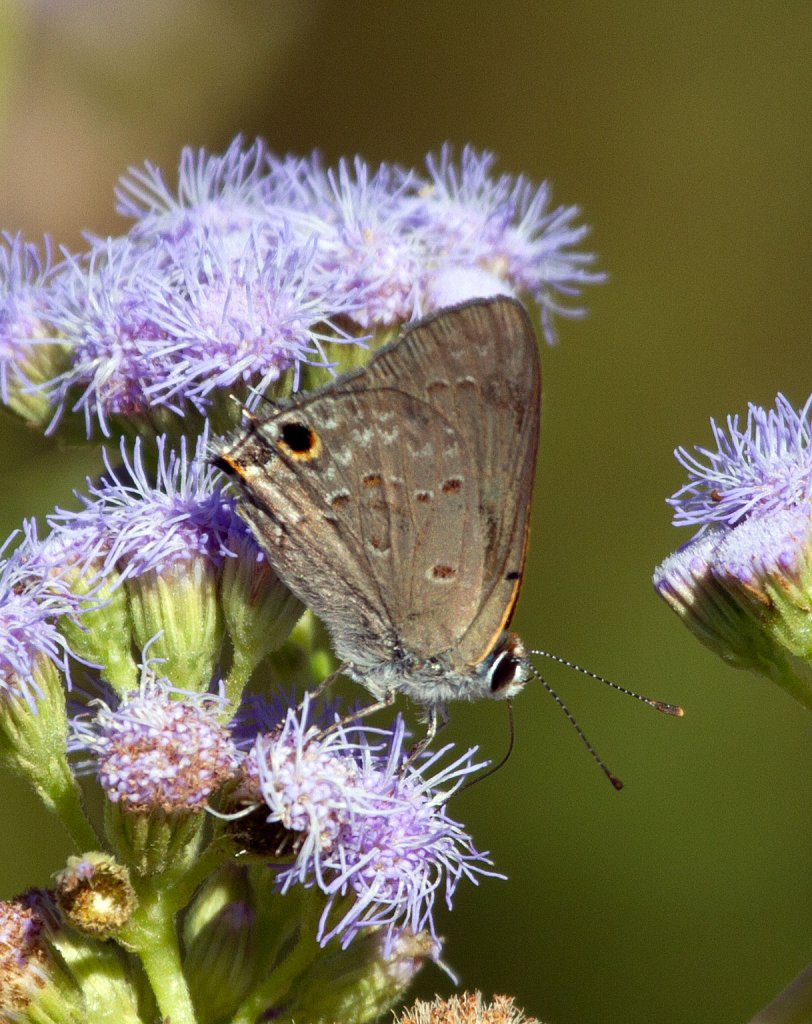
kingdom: Animalia
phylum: Arthropoda
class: Insecta
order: Lepidoptera
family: Lycaenidae
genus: Callicista
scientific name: Callicista columella
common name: Mallow Scrub-Hairstreak
